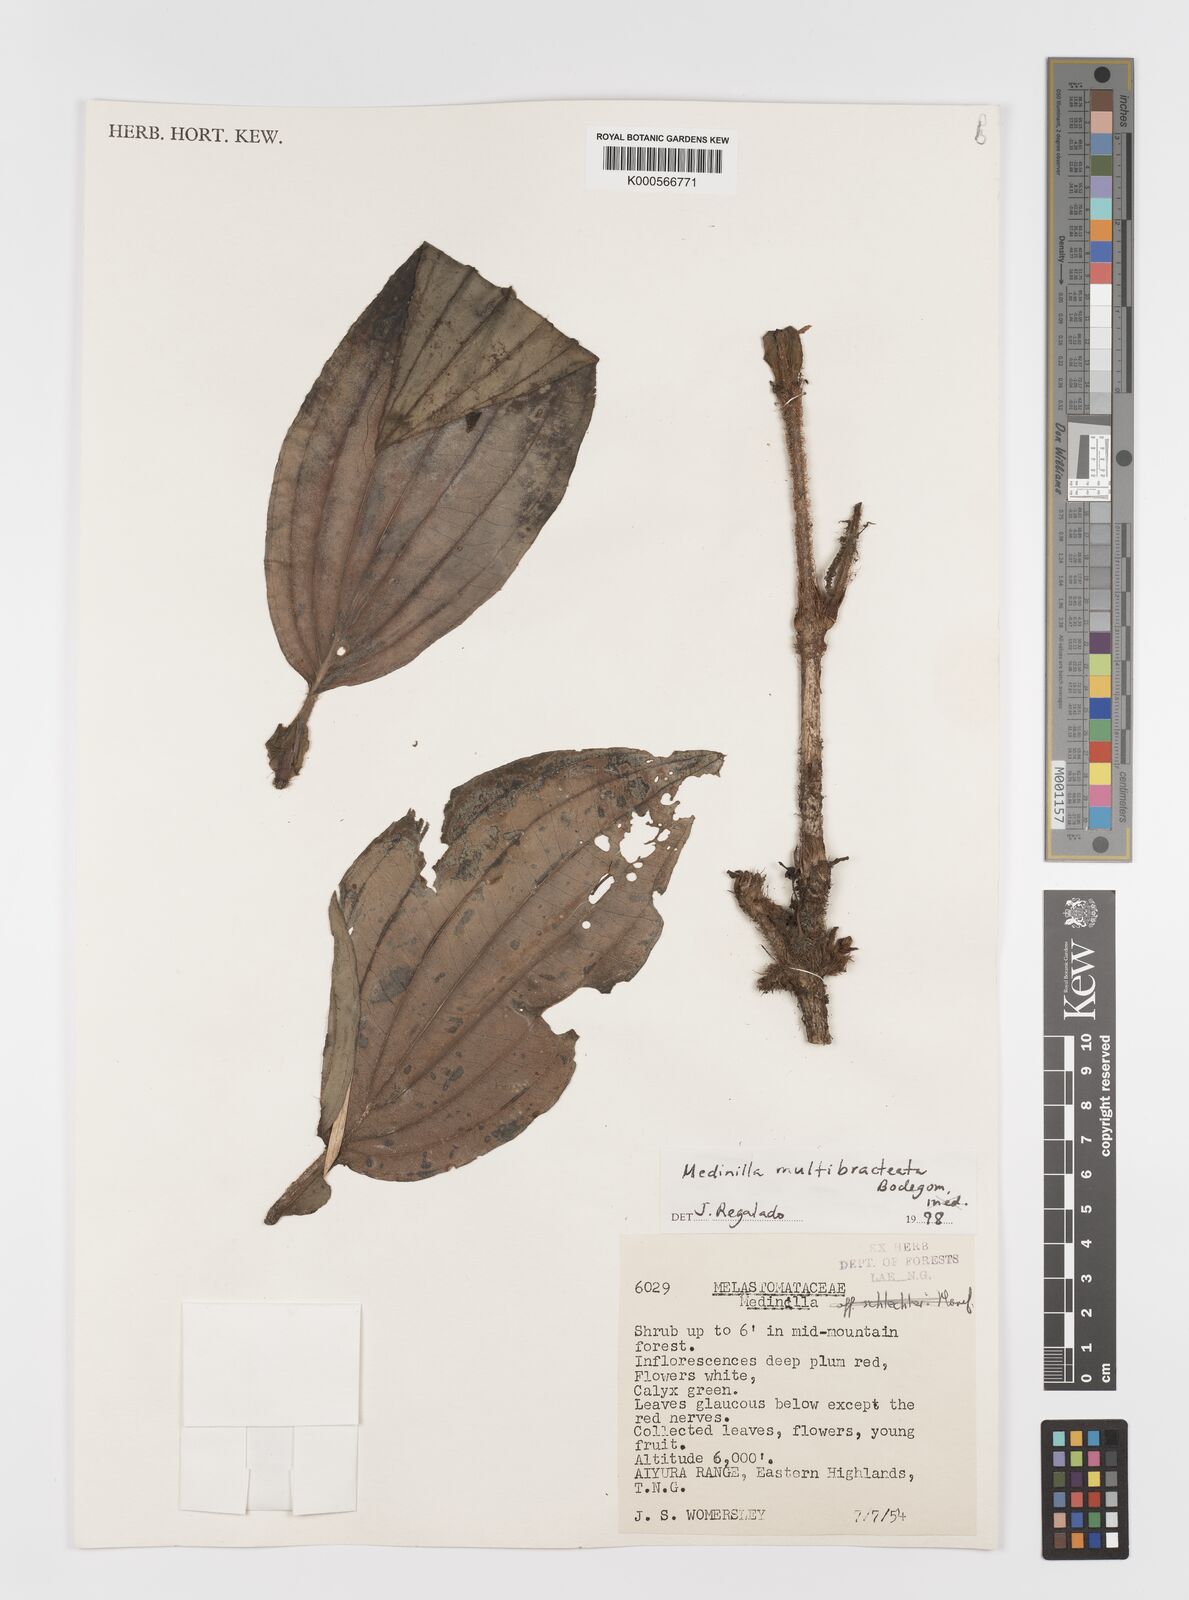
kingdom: Plantae
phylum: Tracheophyta
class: Magnoliopsida
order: Myrtales
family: Melastomataceae
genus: Medinilla
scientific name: Medinilla multibracteata
